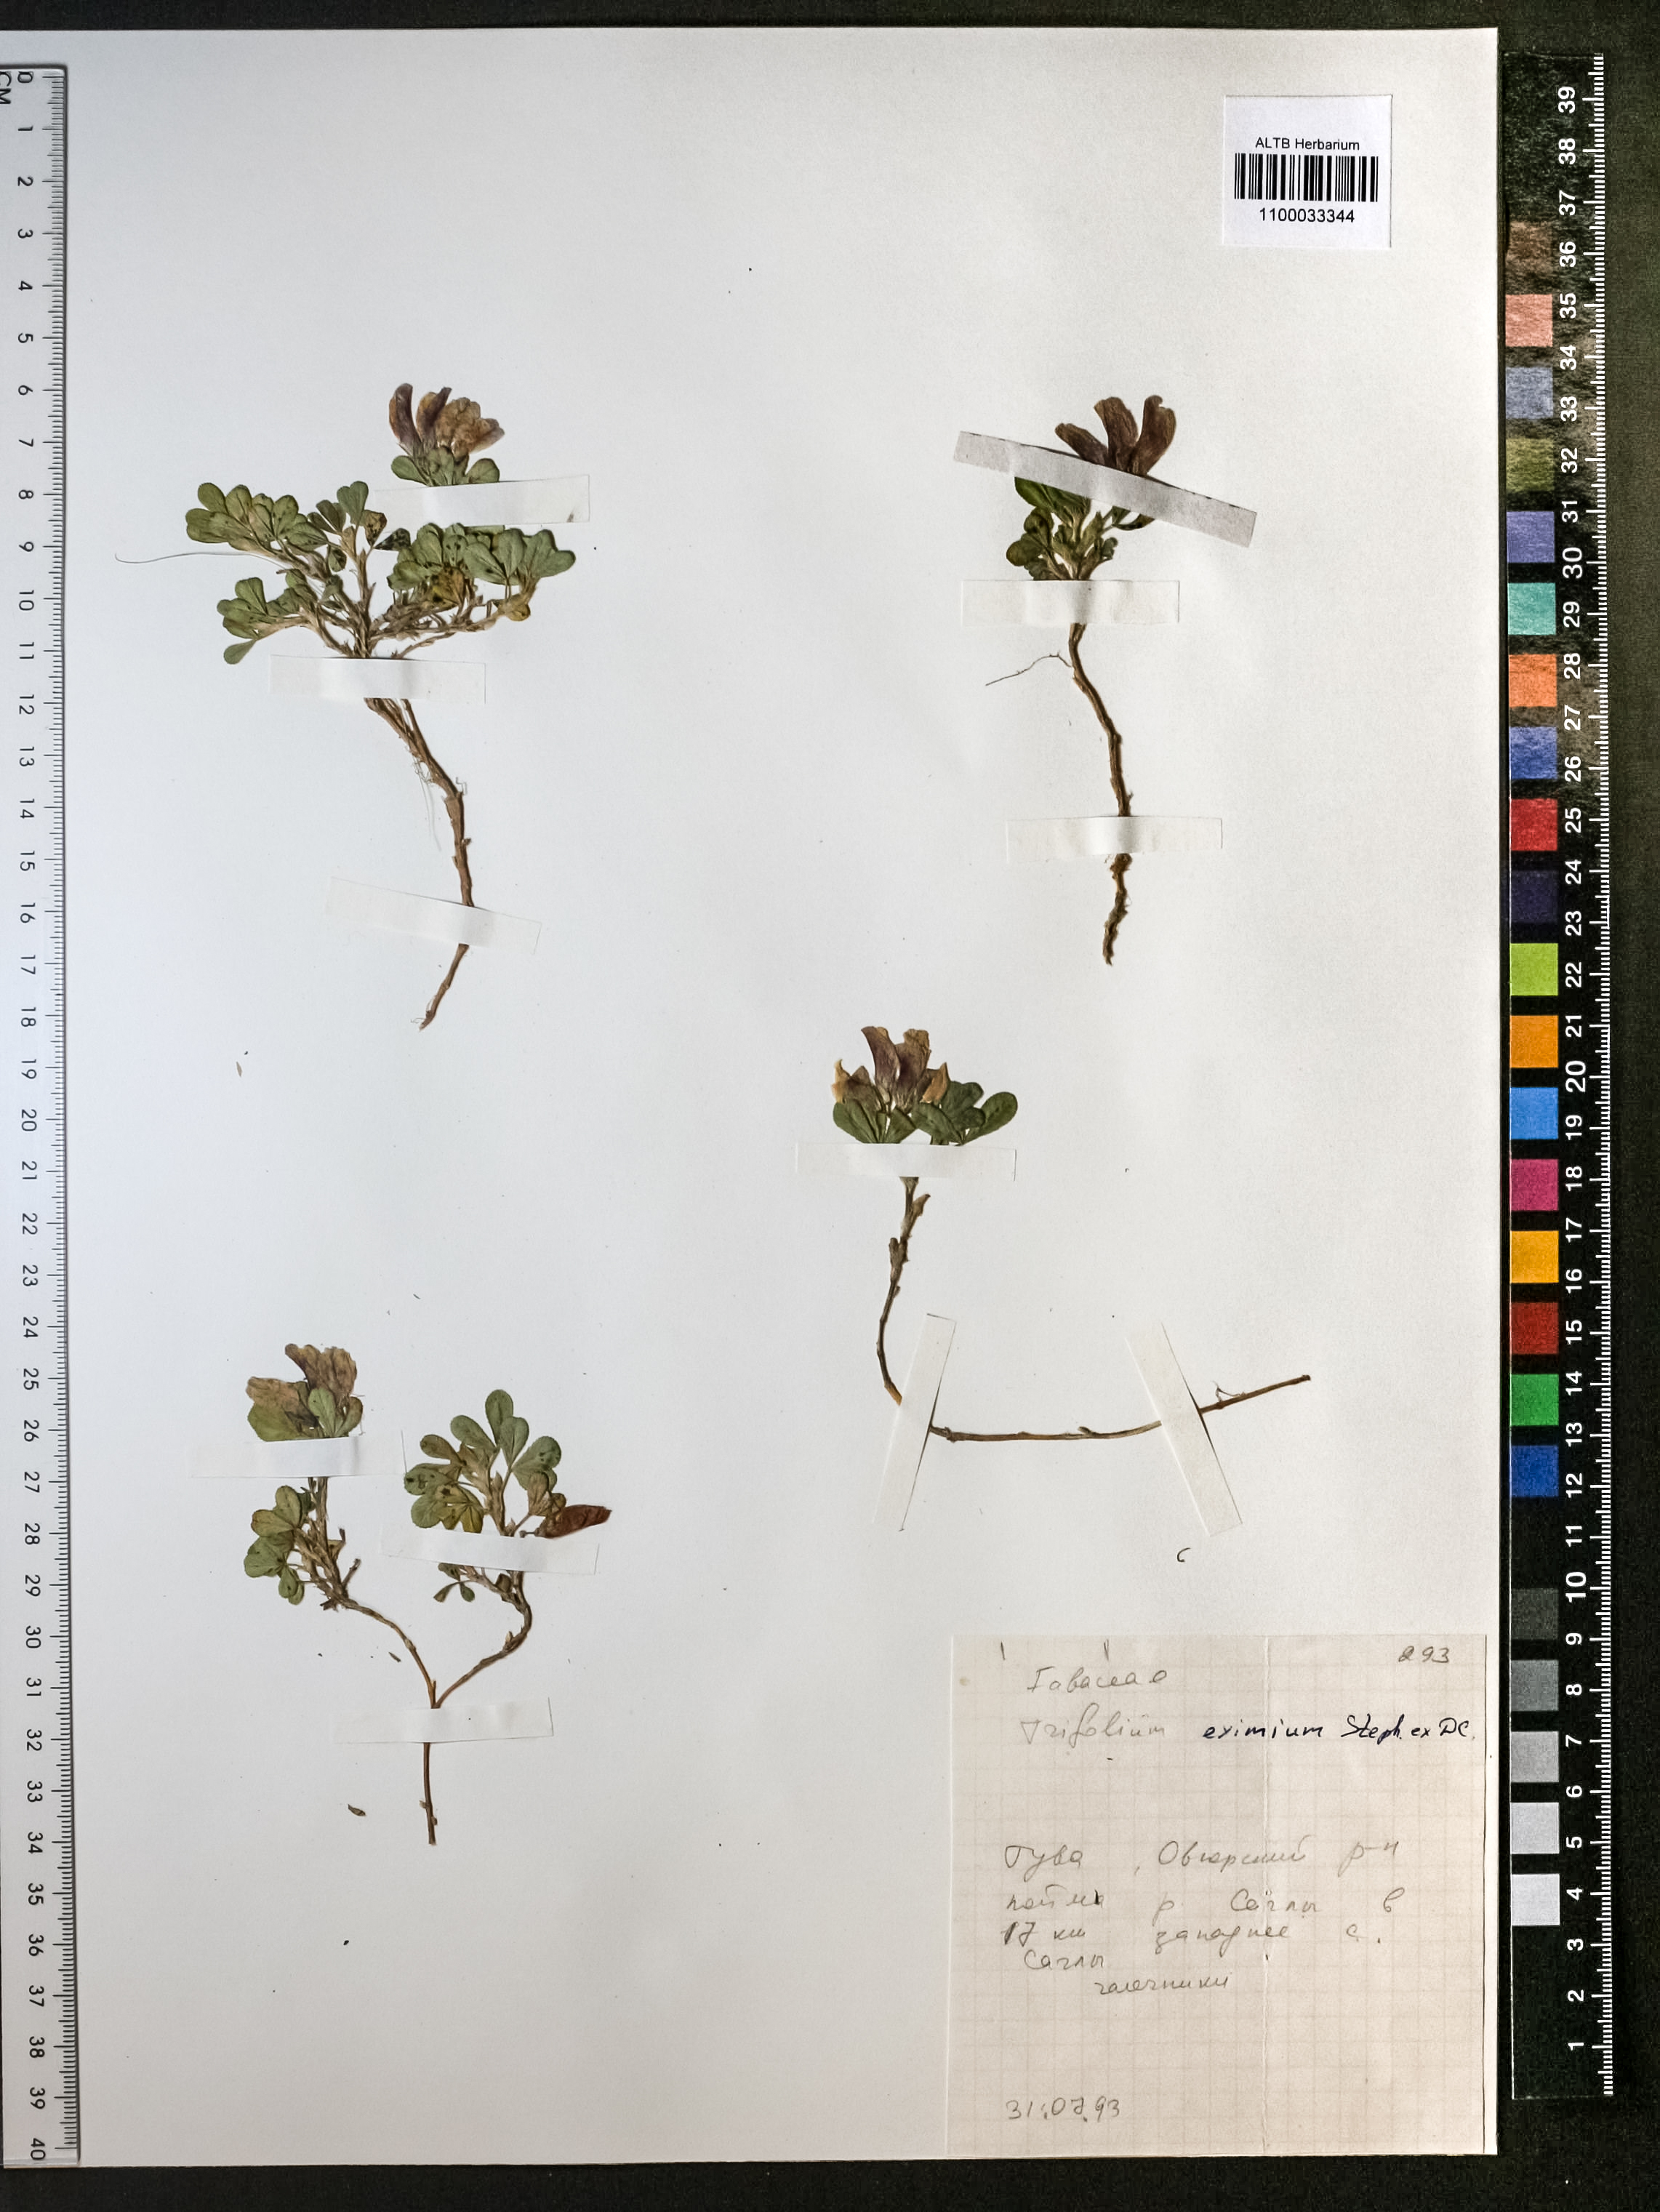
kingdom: Plantae
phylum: Tracheophyta
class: Magnoliopsida
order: Fabales
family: Fabaceae
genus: Trifolium
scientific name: Trifolium eximium
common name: Excellent clover
